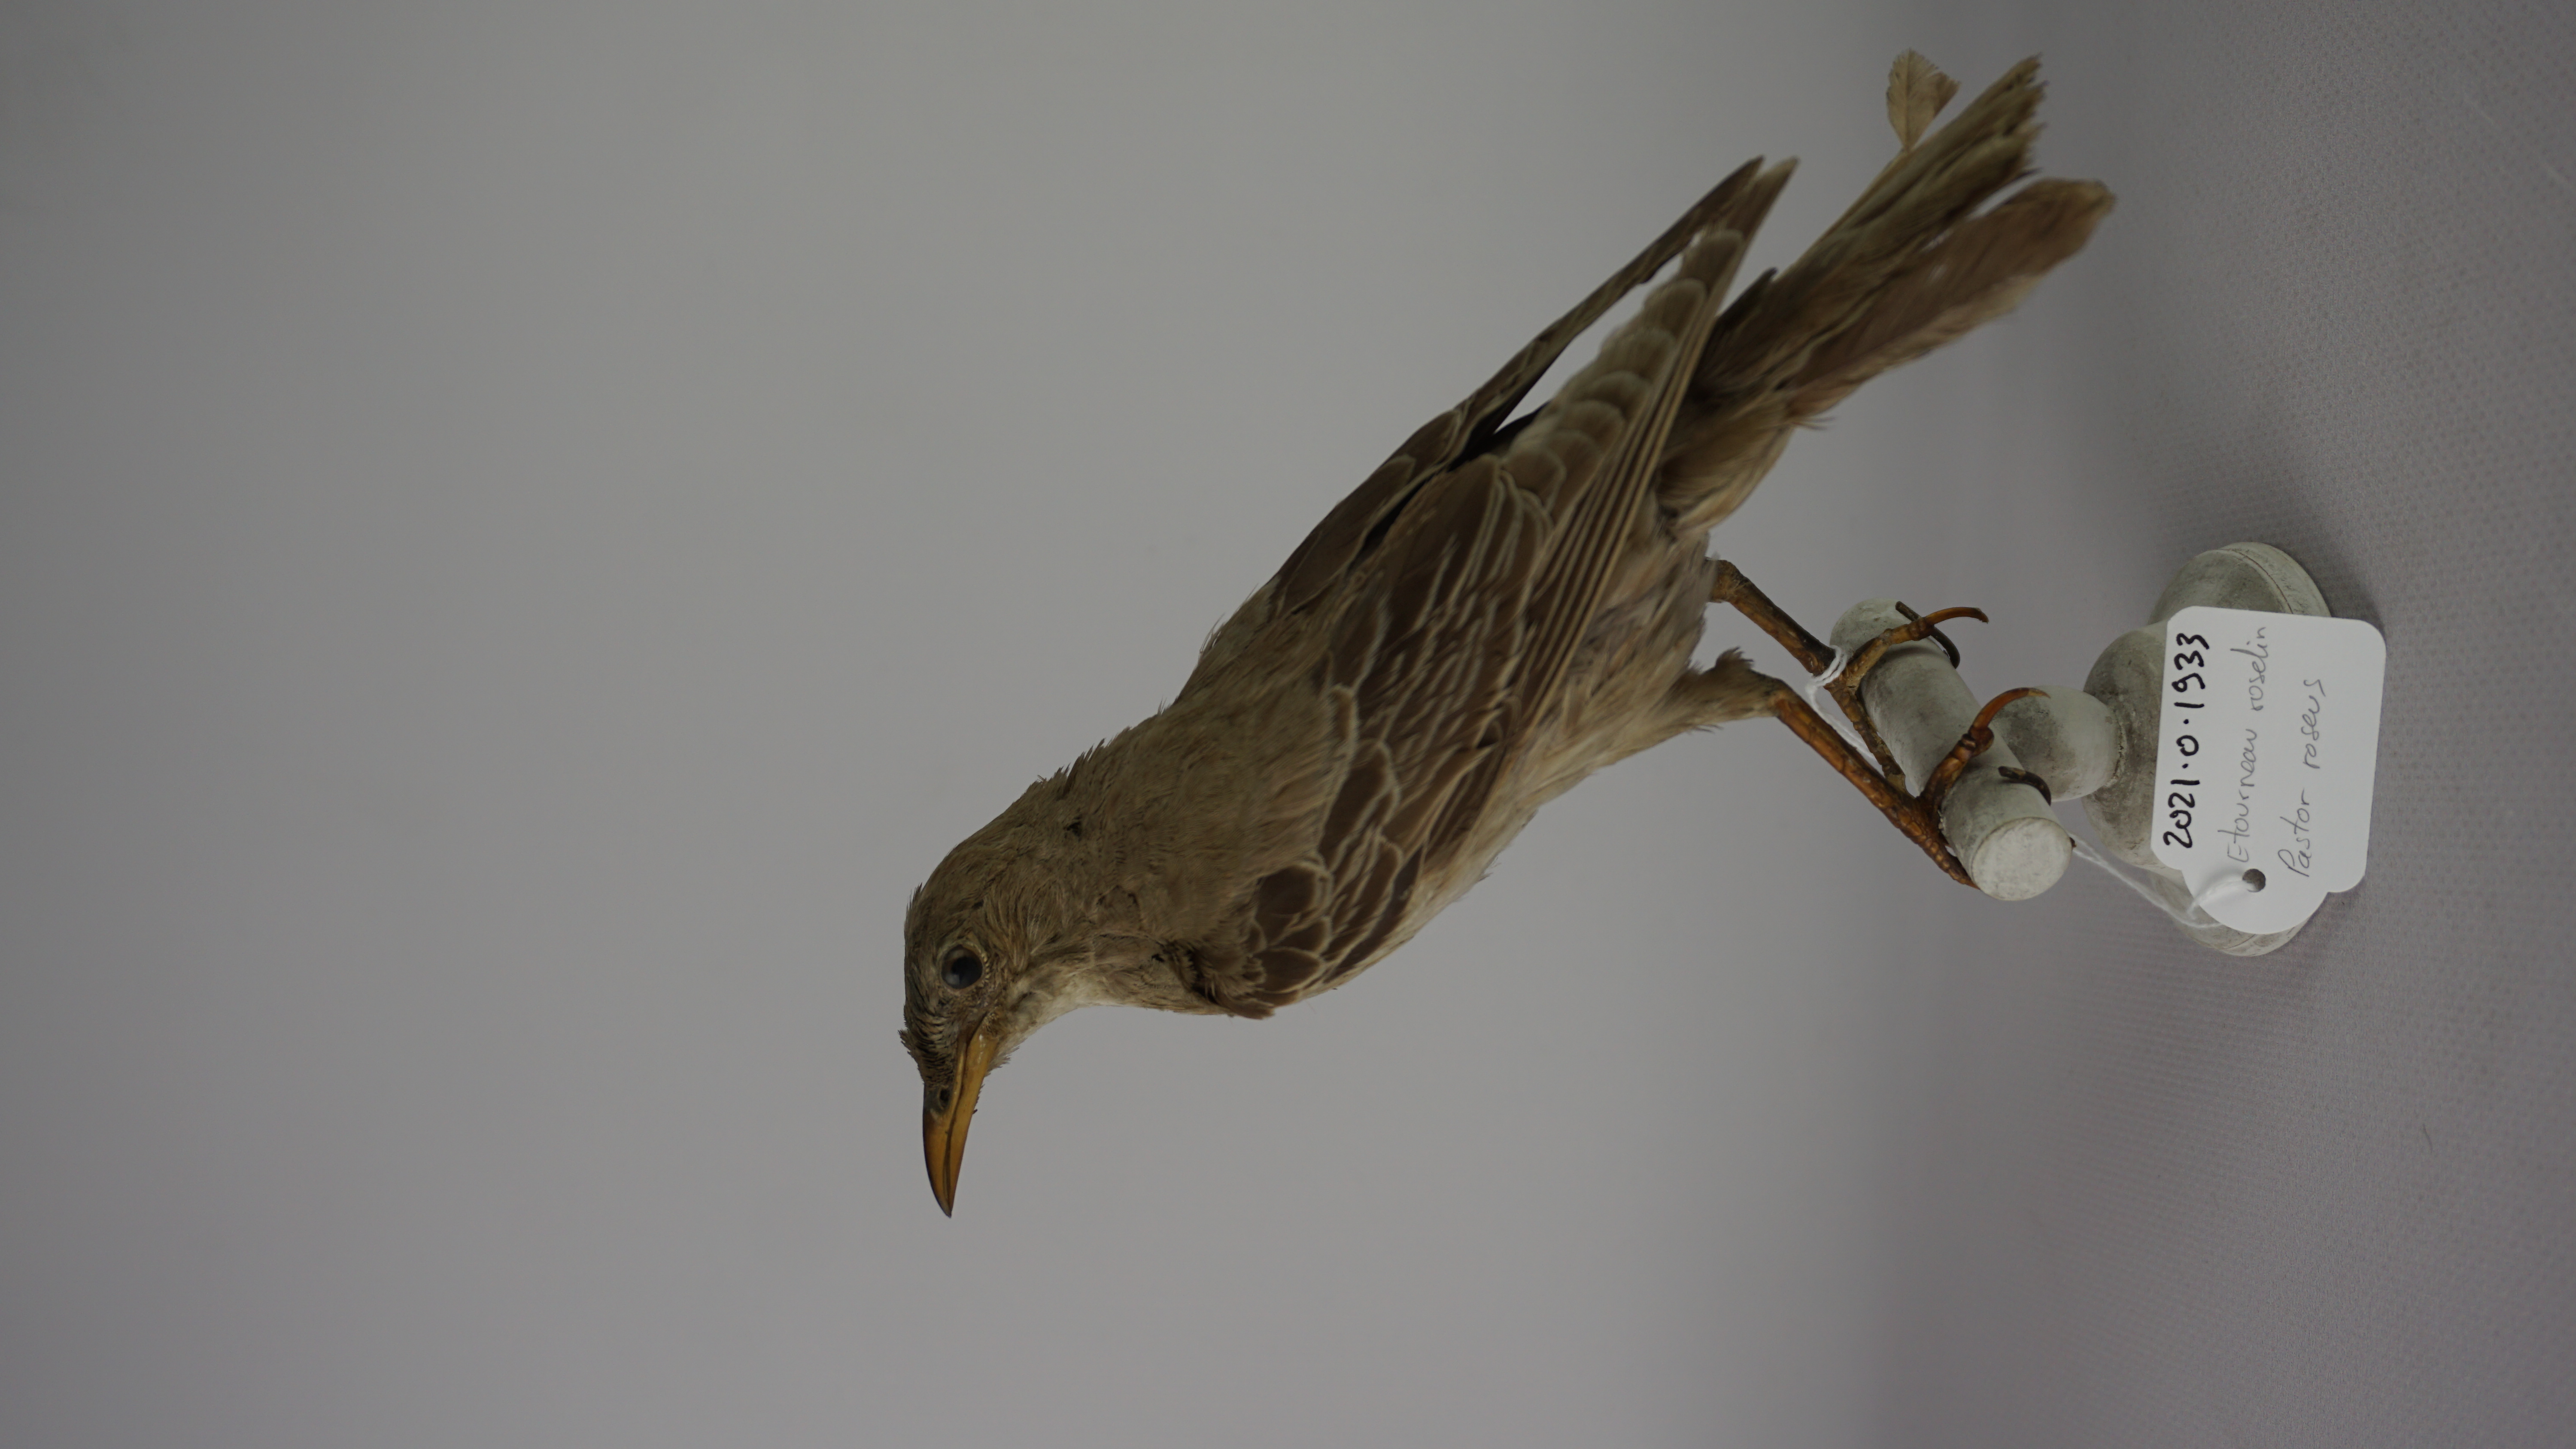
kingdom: Animalia
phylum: Chordata
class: Aves
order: Passeriformes
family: Sturnidae
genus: Pastor
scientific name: Pastor roseus
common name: Rosy starling
